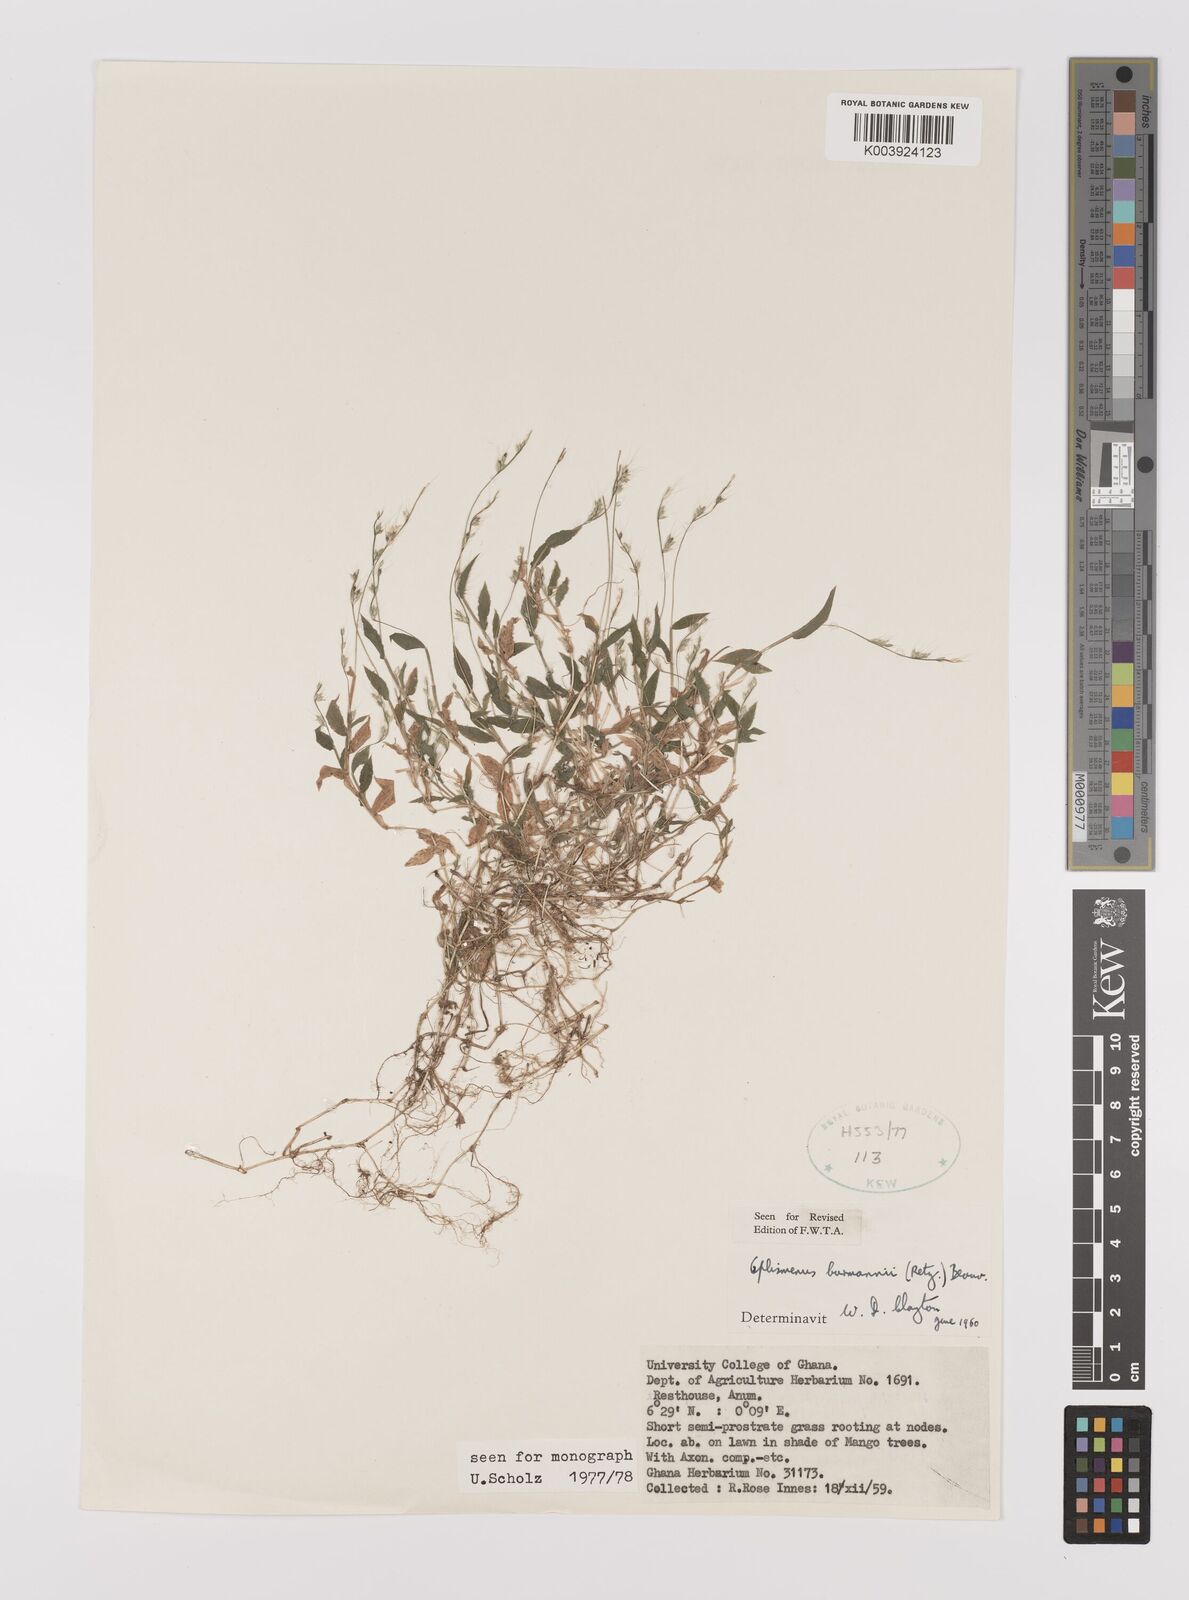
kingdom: Plantae
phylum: Tracheophyta
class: Liliopsida
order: Poales
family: Poaceae
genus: Oplismenus
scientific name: Oplismenus burmanni
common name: Burmann's basketgrass
